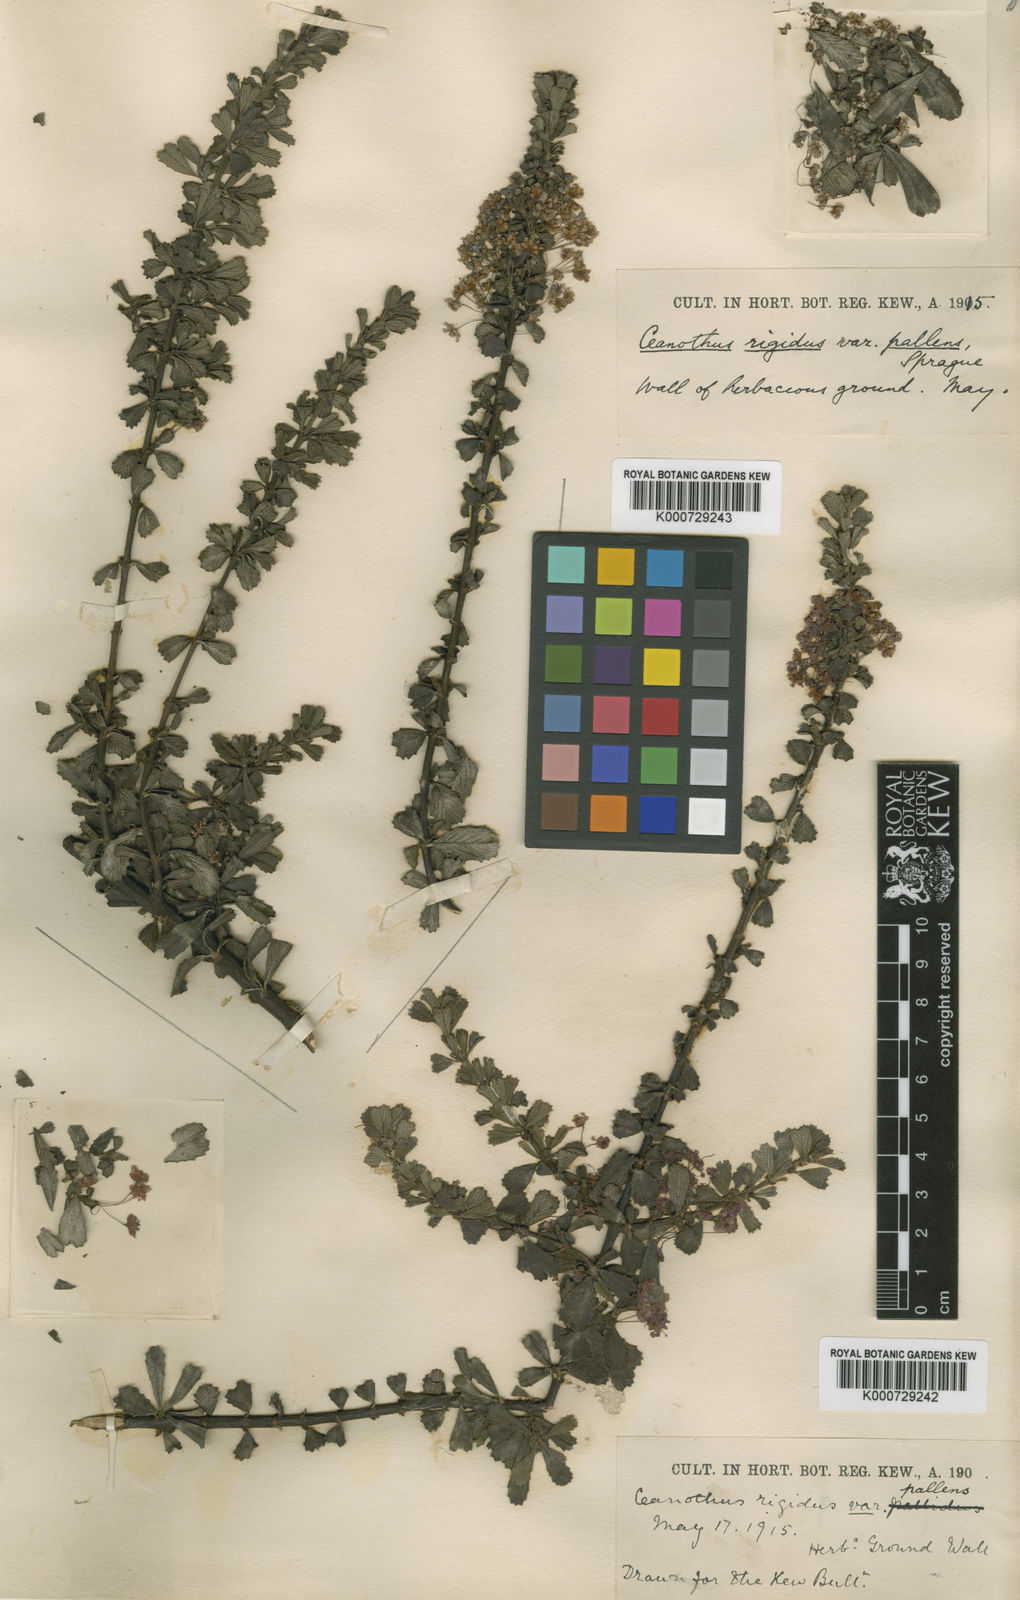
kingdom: Plantae
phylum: Tracheophyta
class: Magnoliopsida
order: Rosales
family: Rhamnaceae
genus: Ceanothus
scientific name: Ceanothus cuneatus
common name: Cuneate ceanothus
